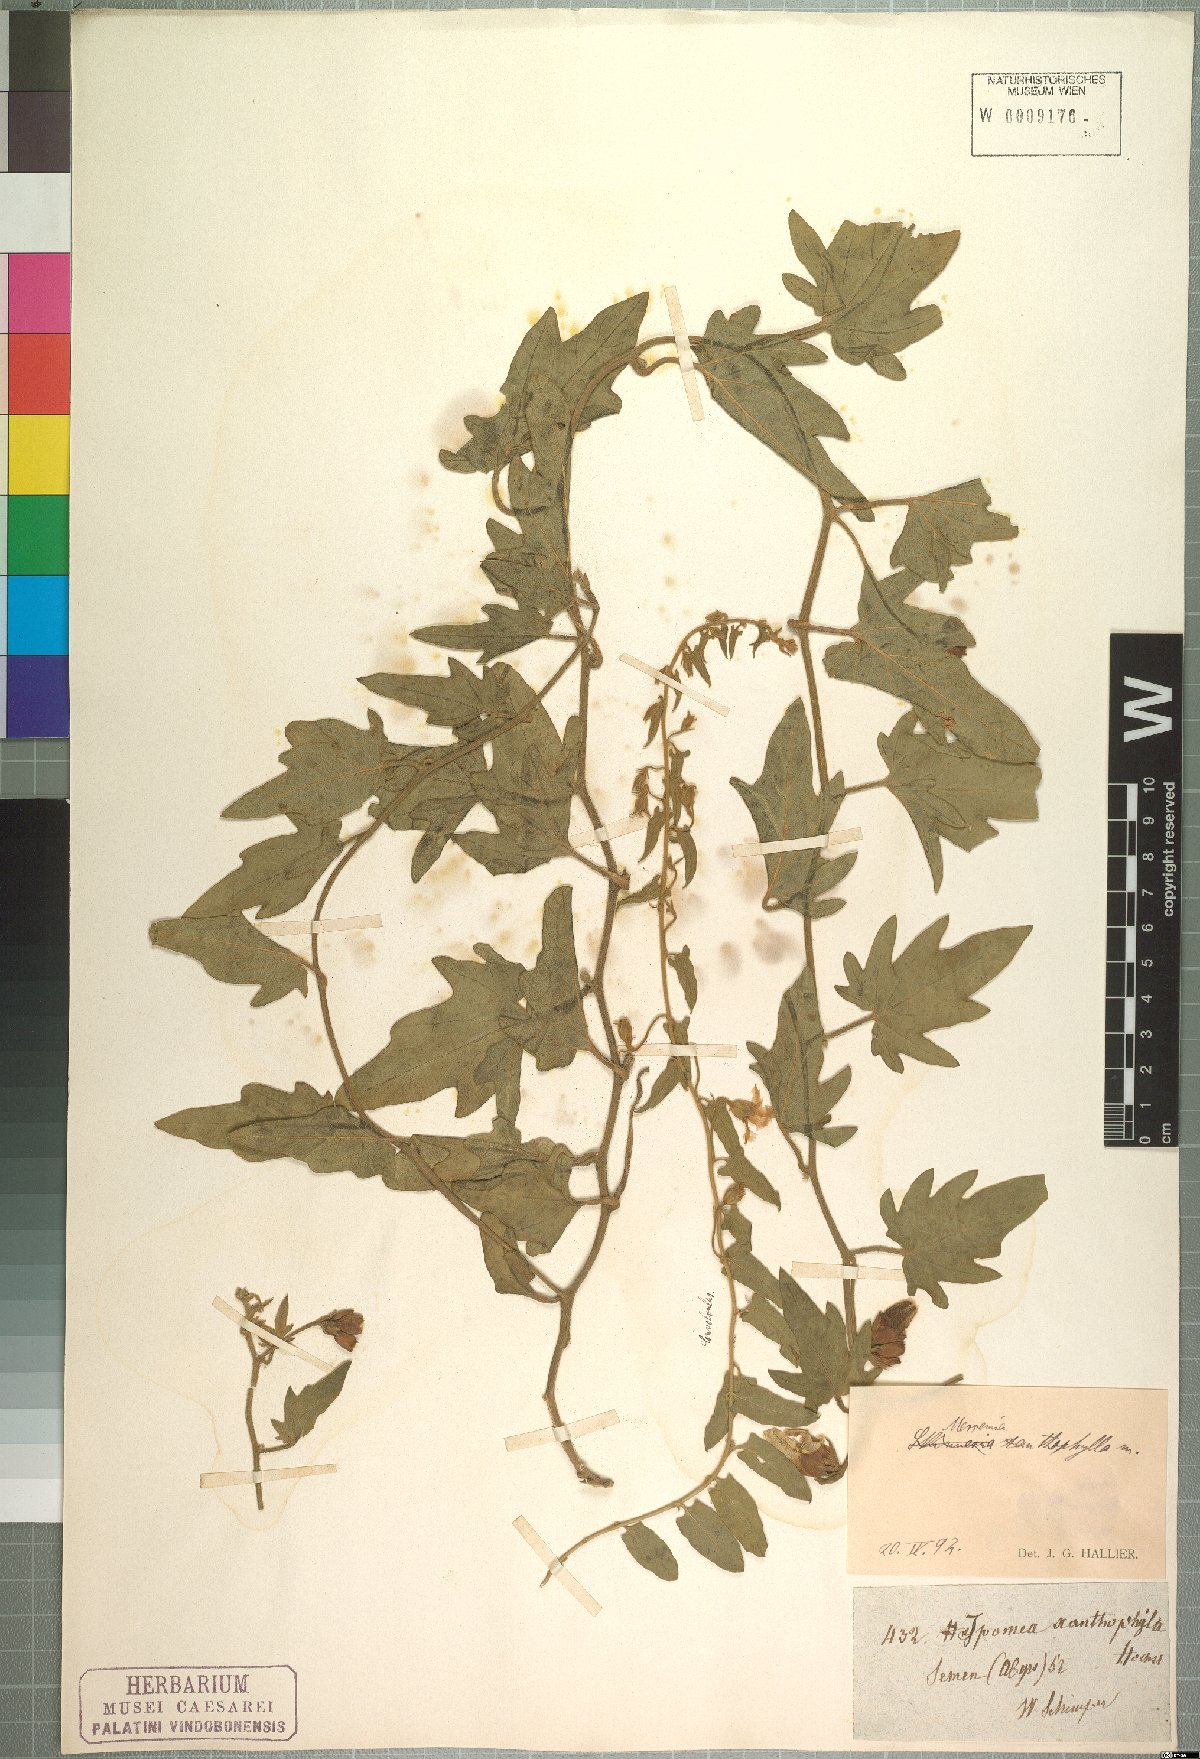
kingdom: Plantae
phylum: Tracheophyta
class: Magnoliopsida
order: Solanales
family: Convolvulaceae
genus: Merremia
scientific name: Merremia xanthophylla
